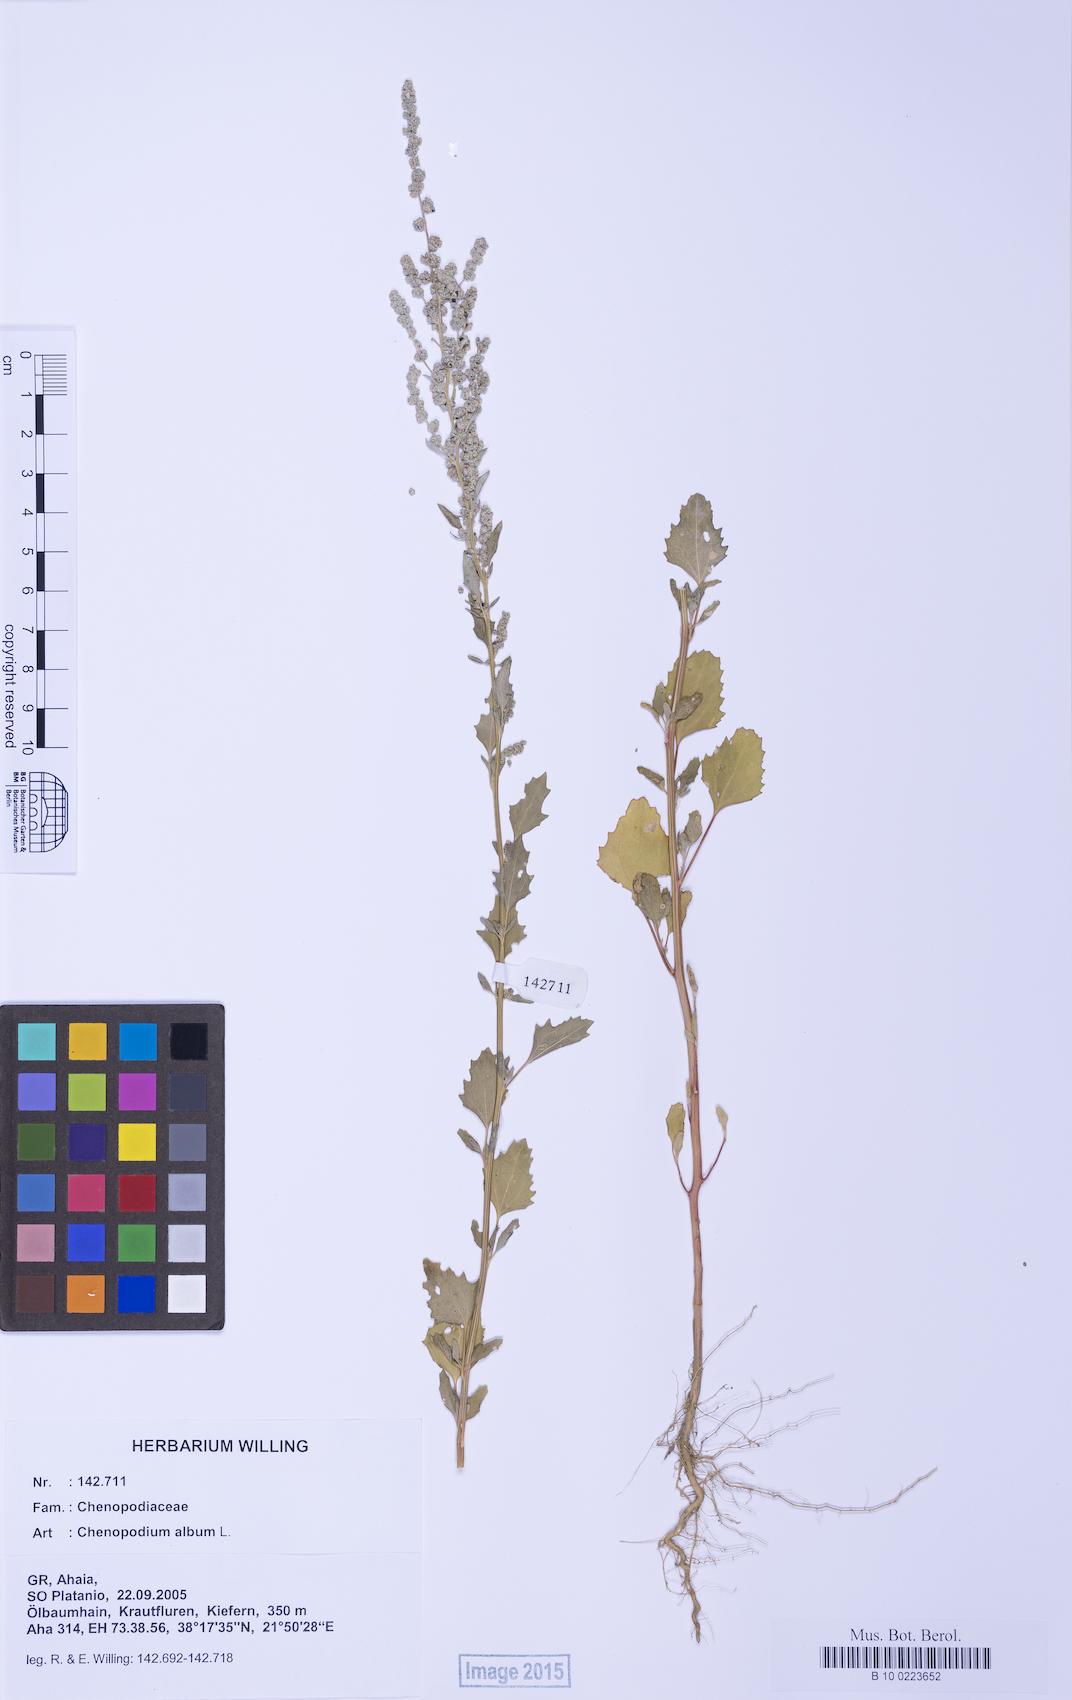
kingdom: Plantae
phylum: Tracheophyta
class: Magnoliopsida
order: Caryophyllales
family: Amaranthaceae
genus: Chenopodium
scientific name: Chenopodium album
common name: Fat-hen
